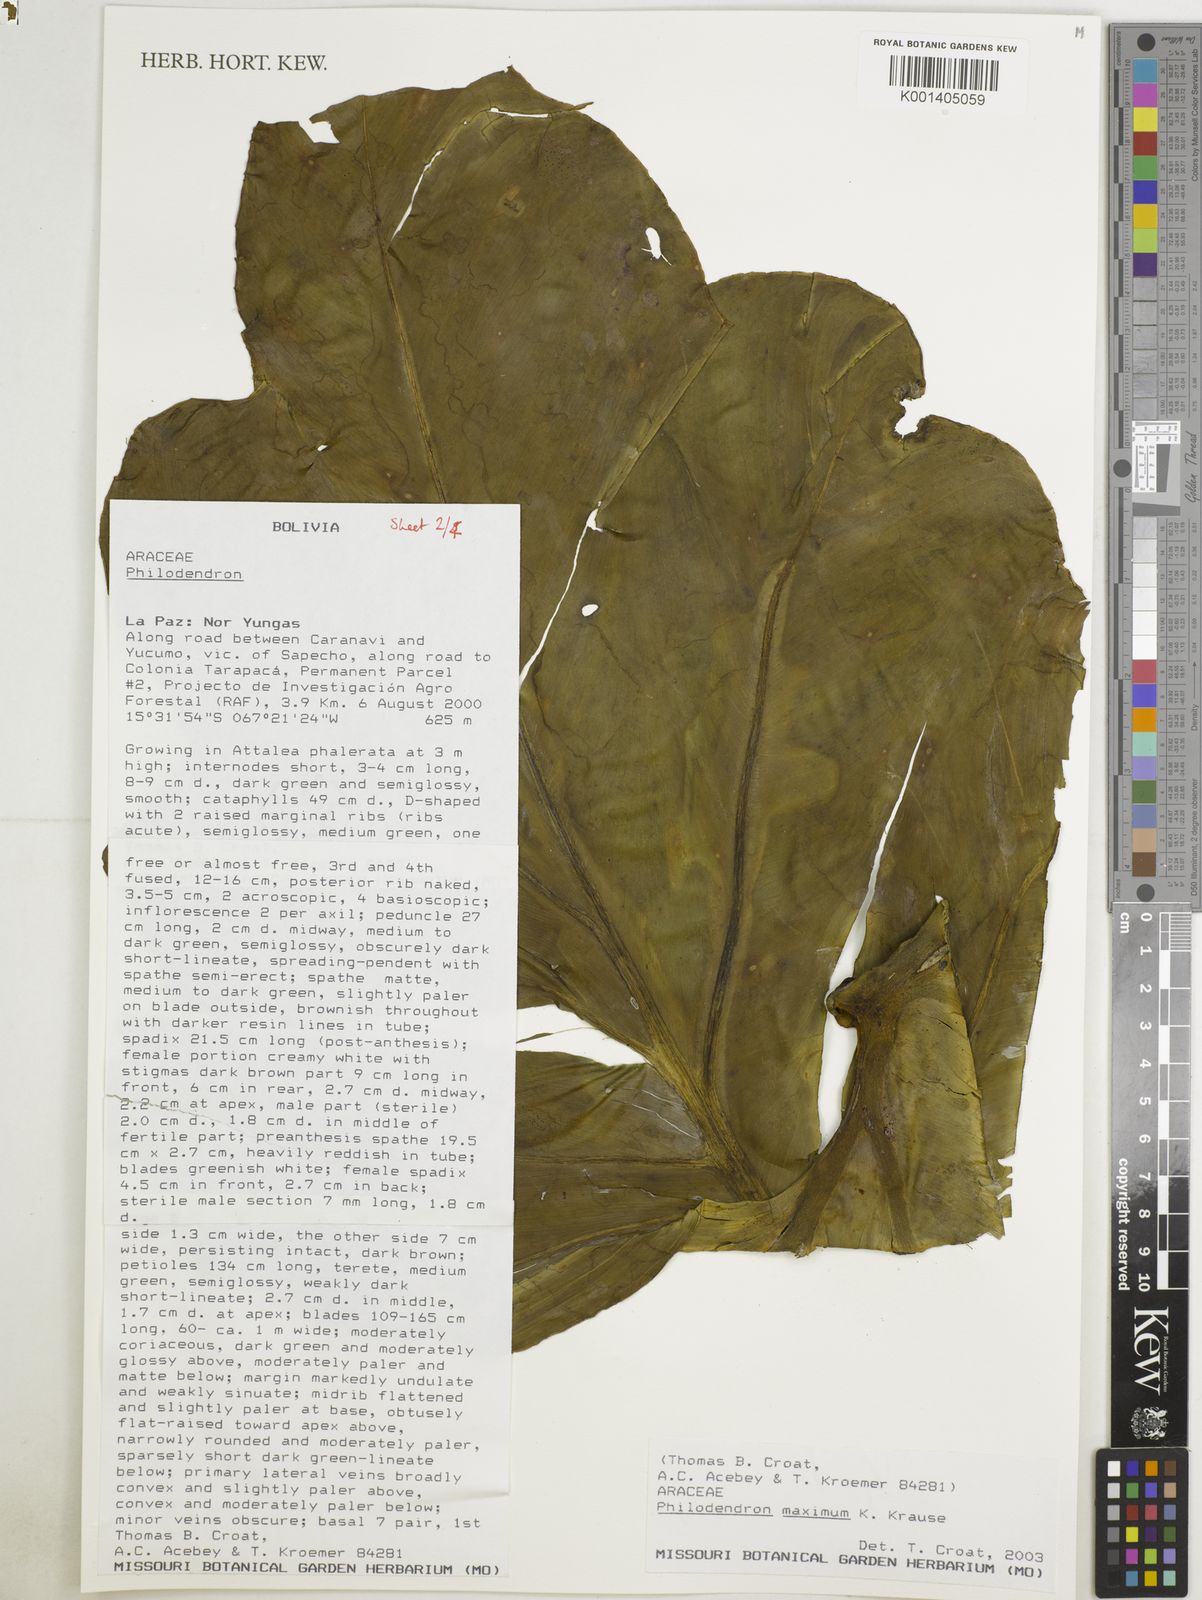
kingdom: Plantae
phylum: Tracheophyta
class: Liliopsida
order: Alismatales
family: Araceae
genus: Philodendron
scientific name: Philodendron maximum
